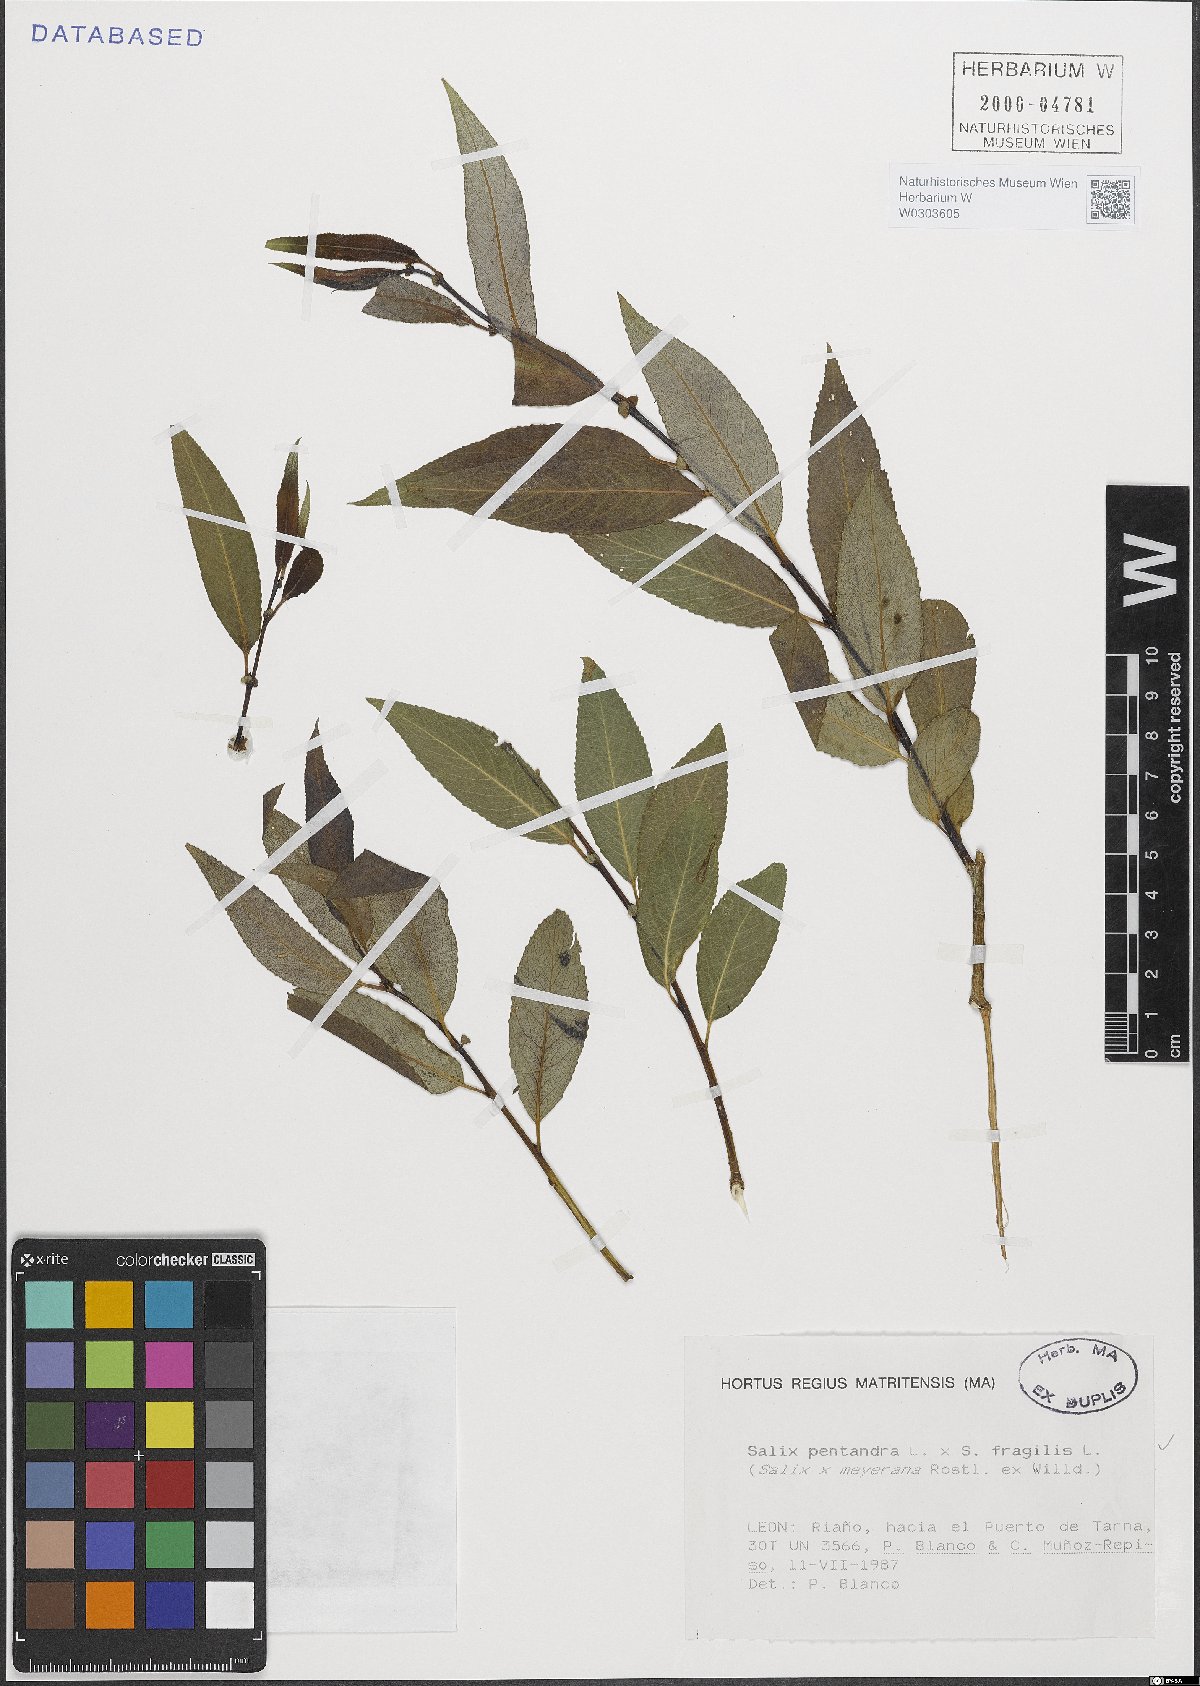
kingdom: Plantae
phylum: Tracheophyta
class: Magnoliopsida
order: Malpighiales
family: Salicaceae
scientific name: Salicaceae
